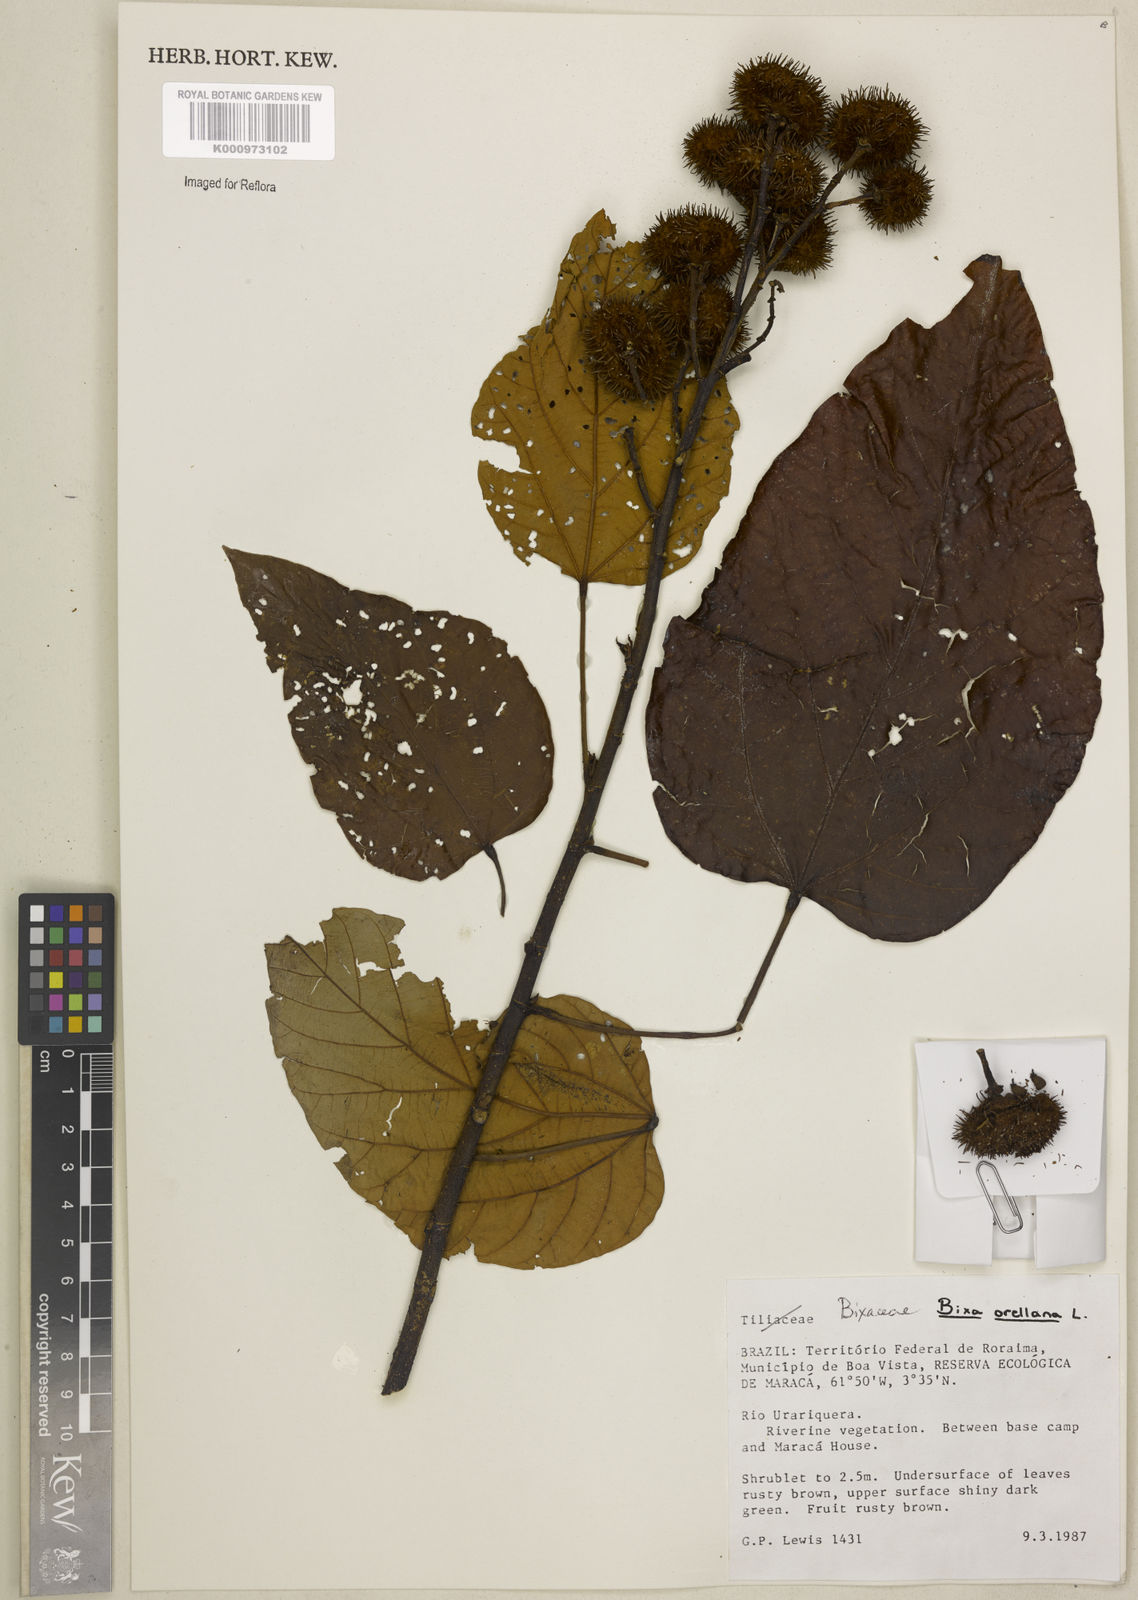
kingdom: Plantae
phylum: Tracheophyta
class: Magnoliopsida
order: Malvales
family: Bixaceae
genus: Bixa
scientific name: Bixa excelsa
